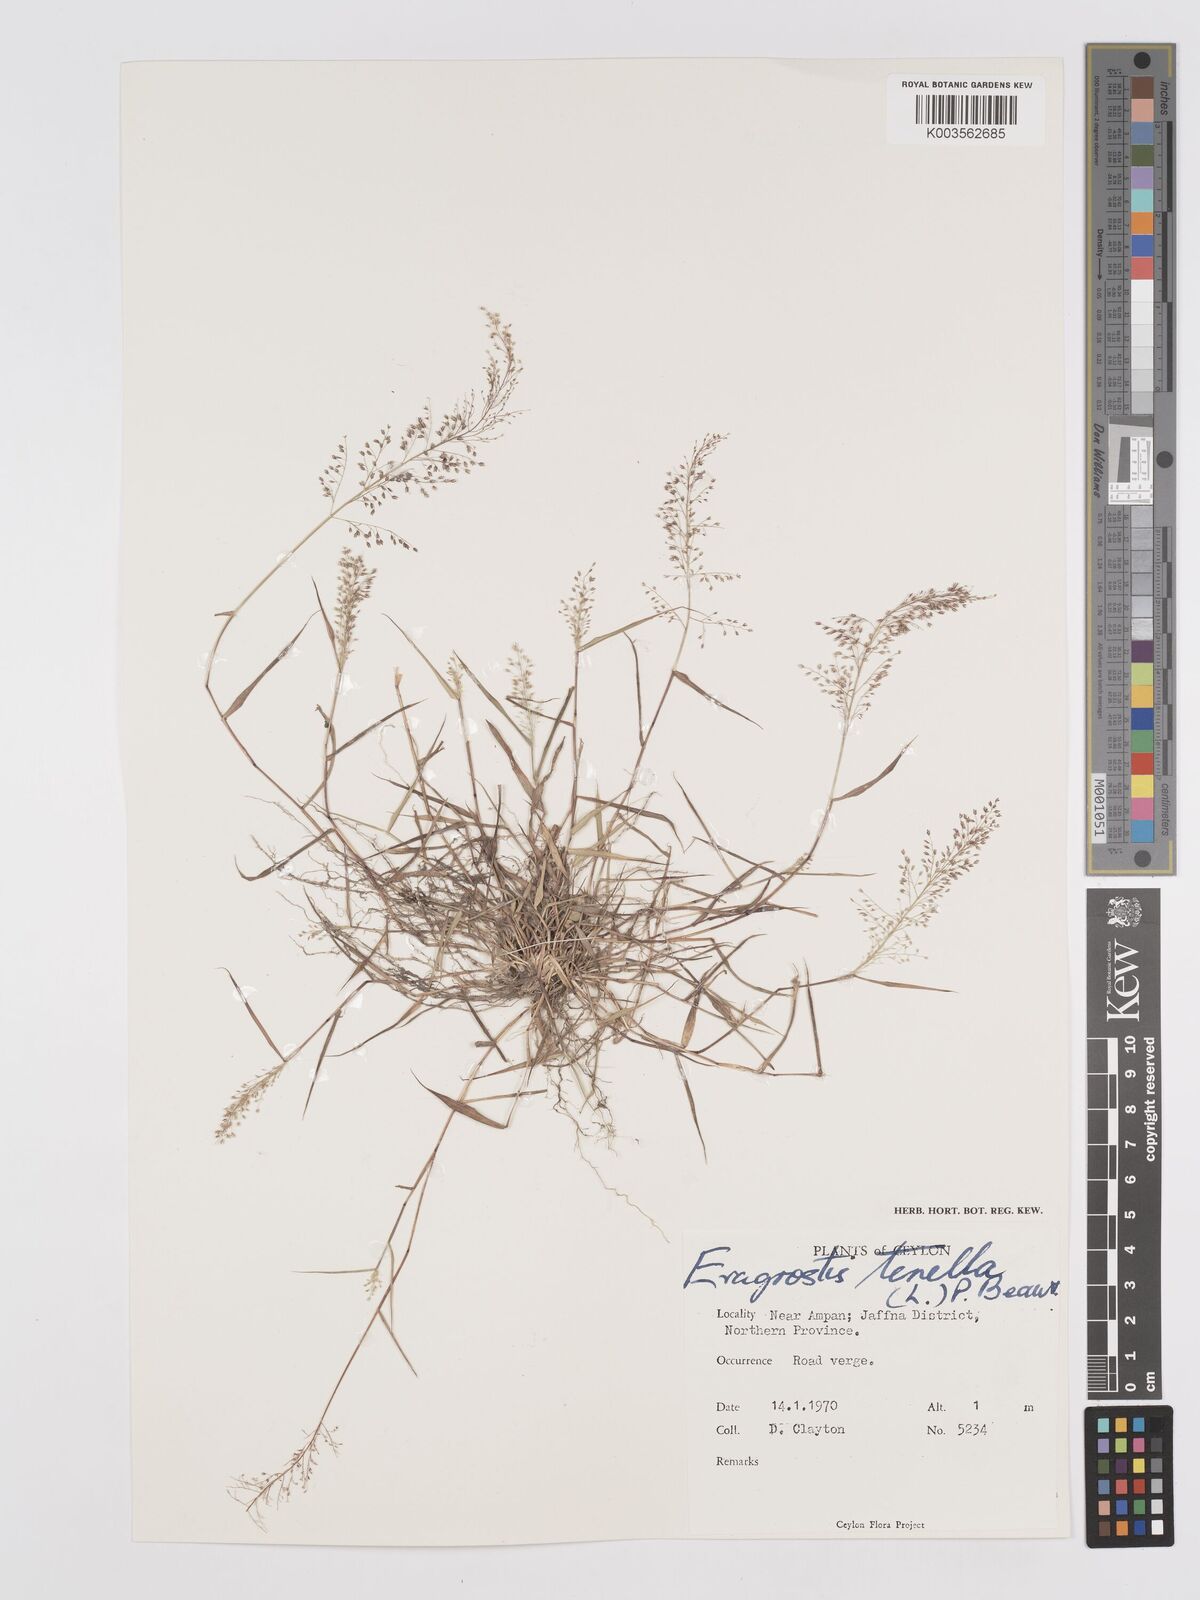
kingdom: Plantae
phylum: Tracheophyta
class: Liliopsida
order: Poales
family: Poaceae
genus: Eragrostis
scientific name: Eragrostis tenella
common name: Japanese lovegrass
